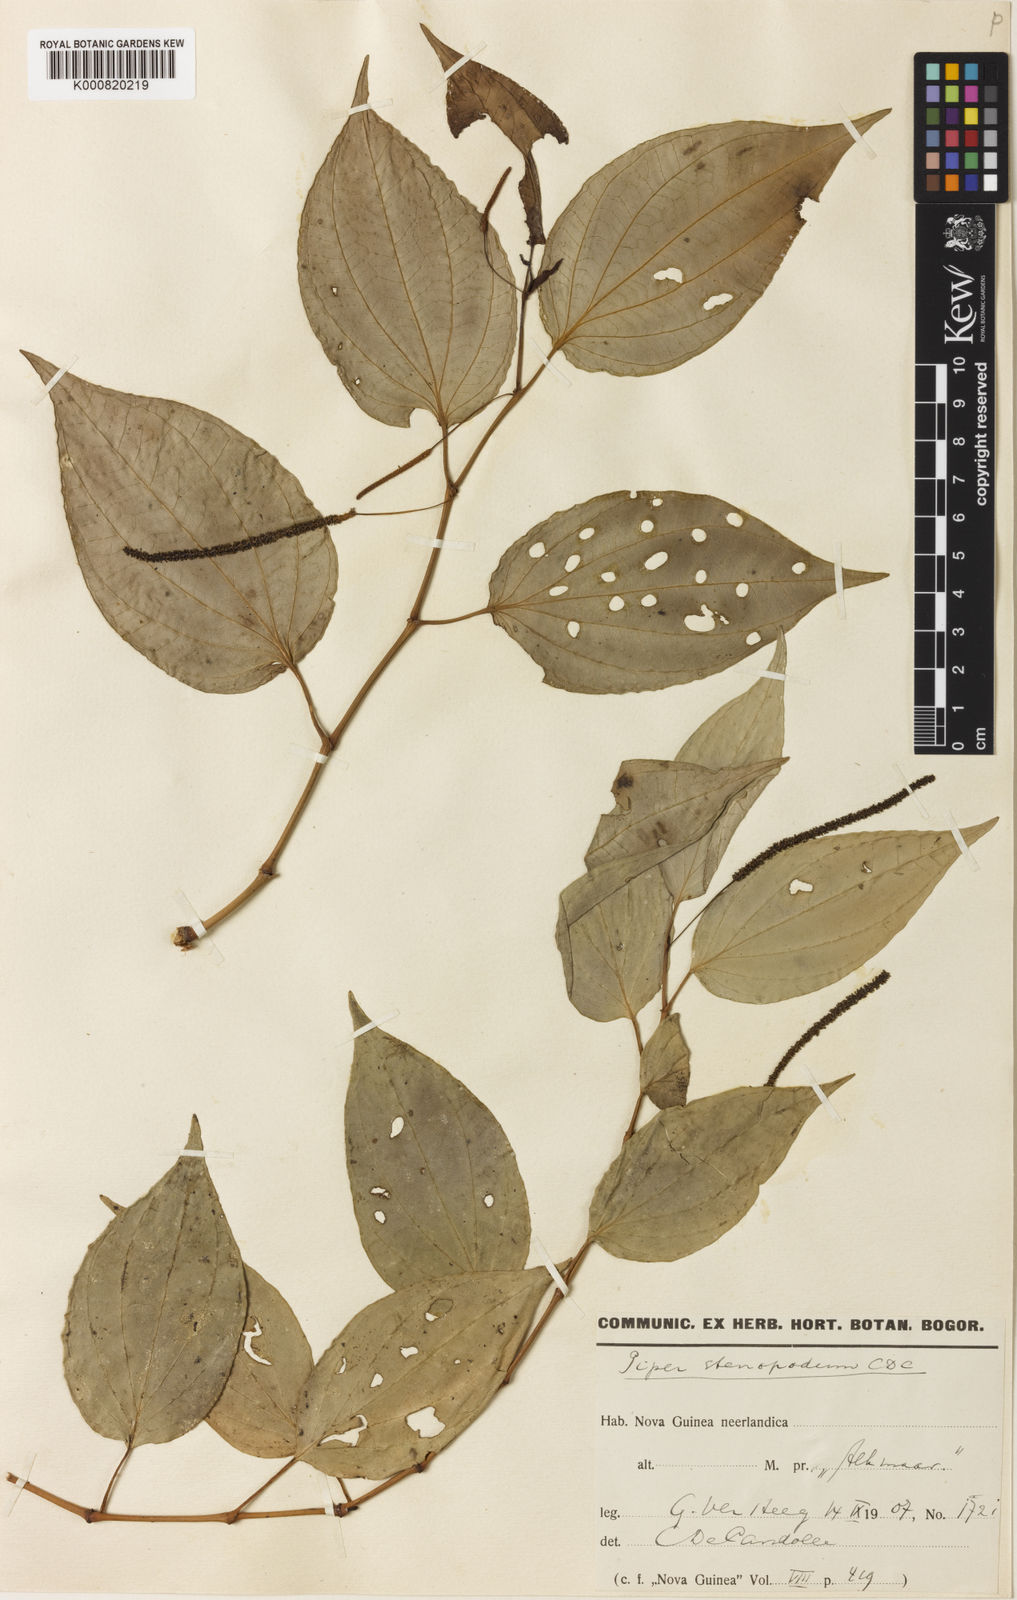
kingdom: Plantae
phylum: Tracheophyta
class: Magnoliopsida
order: Piperales
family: Piperaceae
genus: Piper
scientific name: Piper stenopodum
